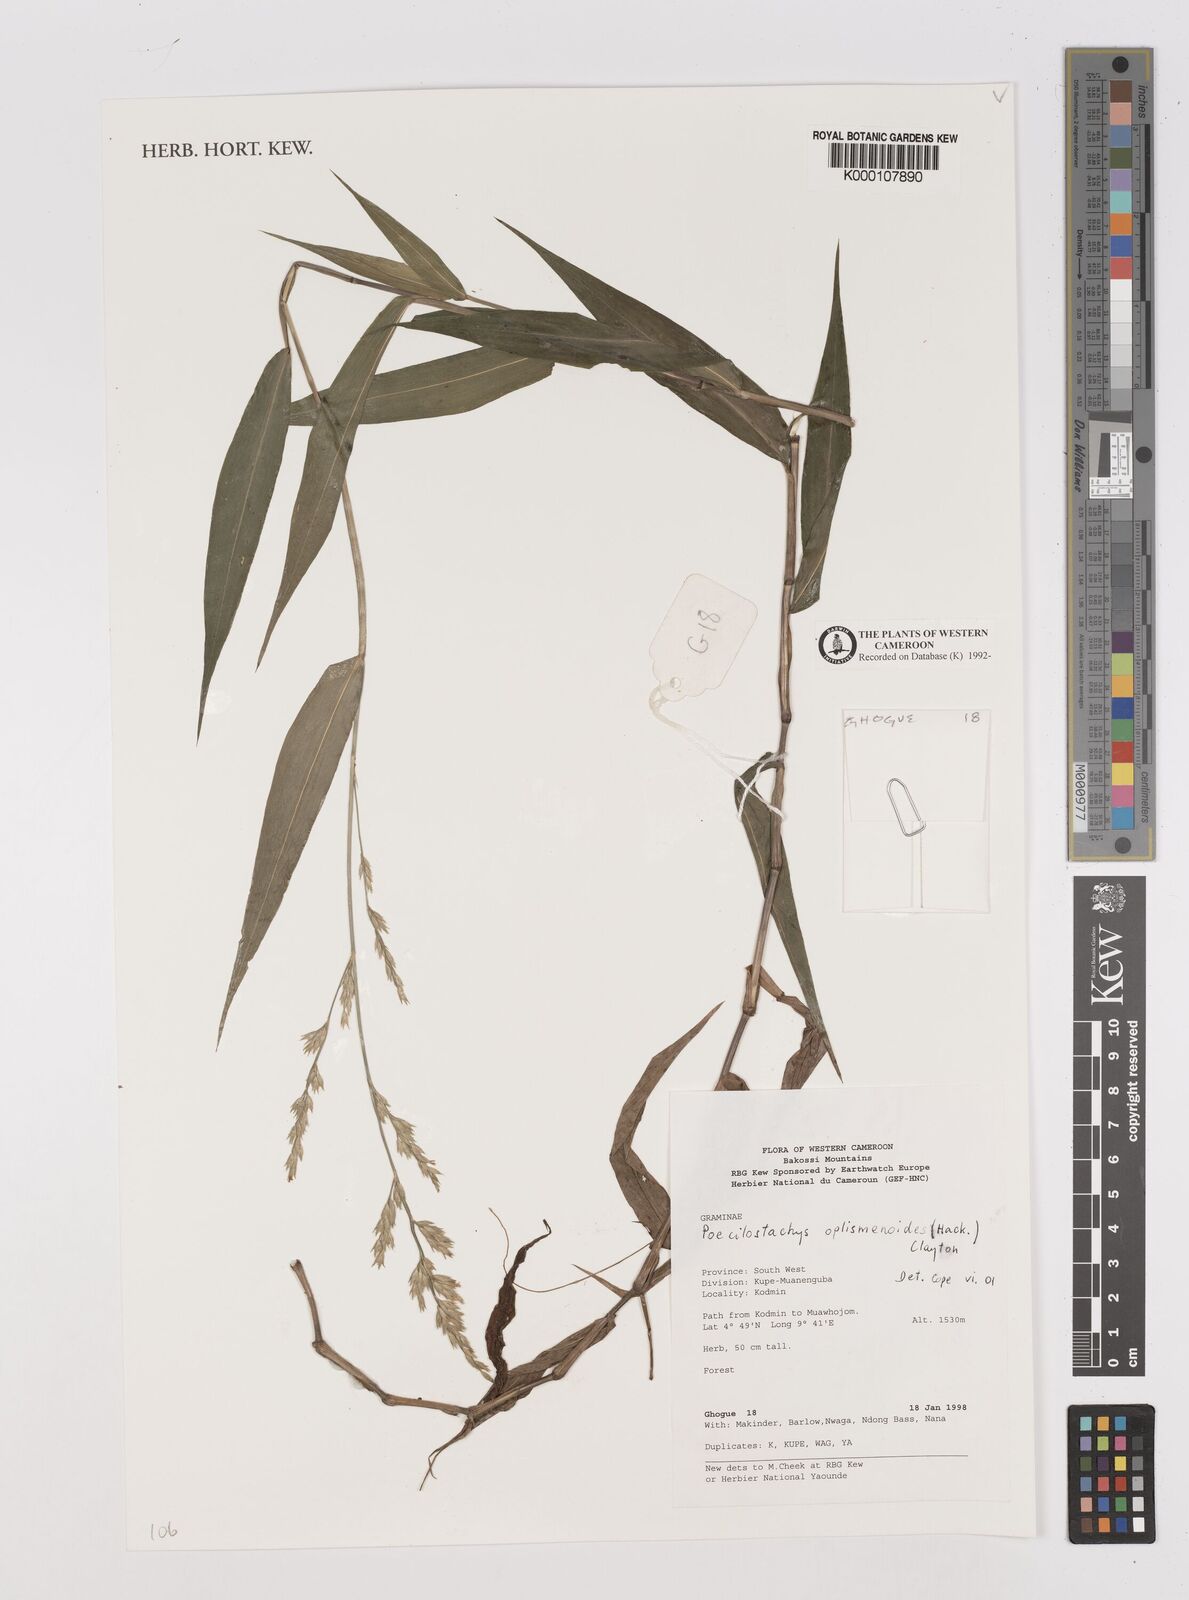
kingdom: Plantae
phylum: Tracheophyta
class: Liliopsida
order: Poales
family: Poaceae
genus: Poecilostachys
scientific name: Poecilostachys oplismenoides
